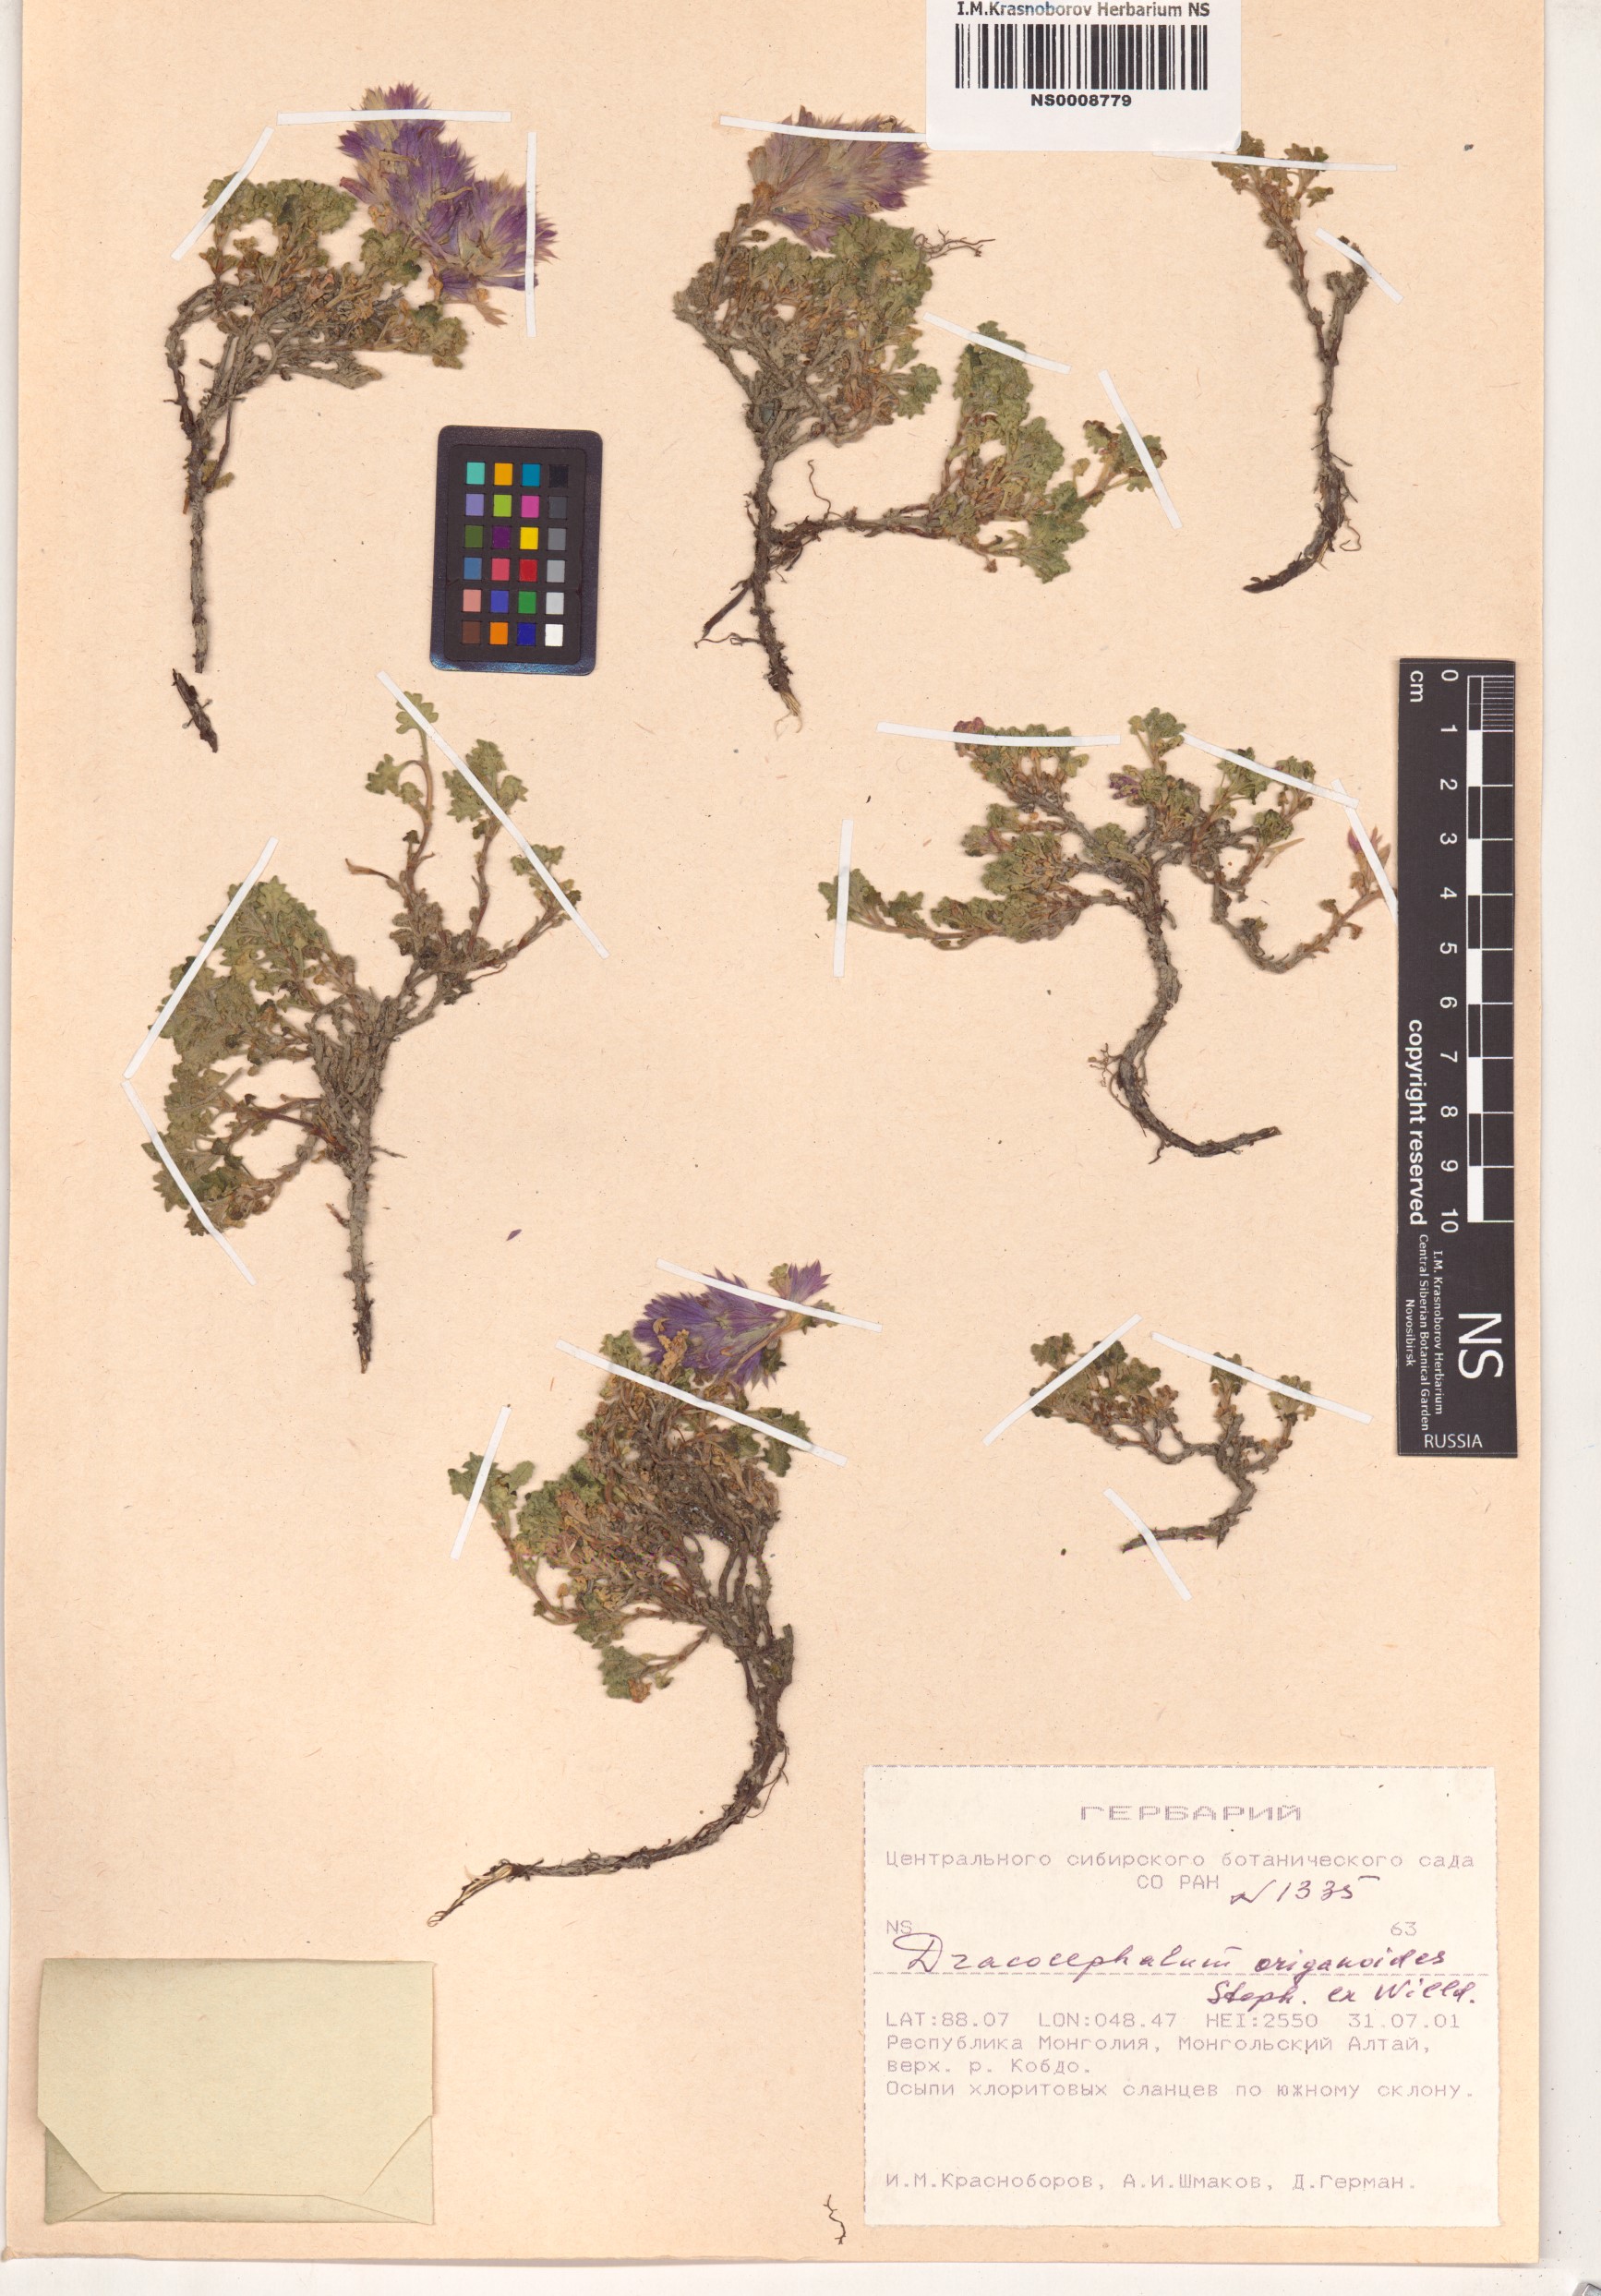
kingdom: Plantae
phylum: Tracheophyta
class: Magnoliopsida
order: Lamiales
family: Lamiaceae
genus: Dracocephalum
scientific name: Dracocephalum origanoides
